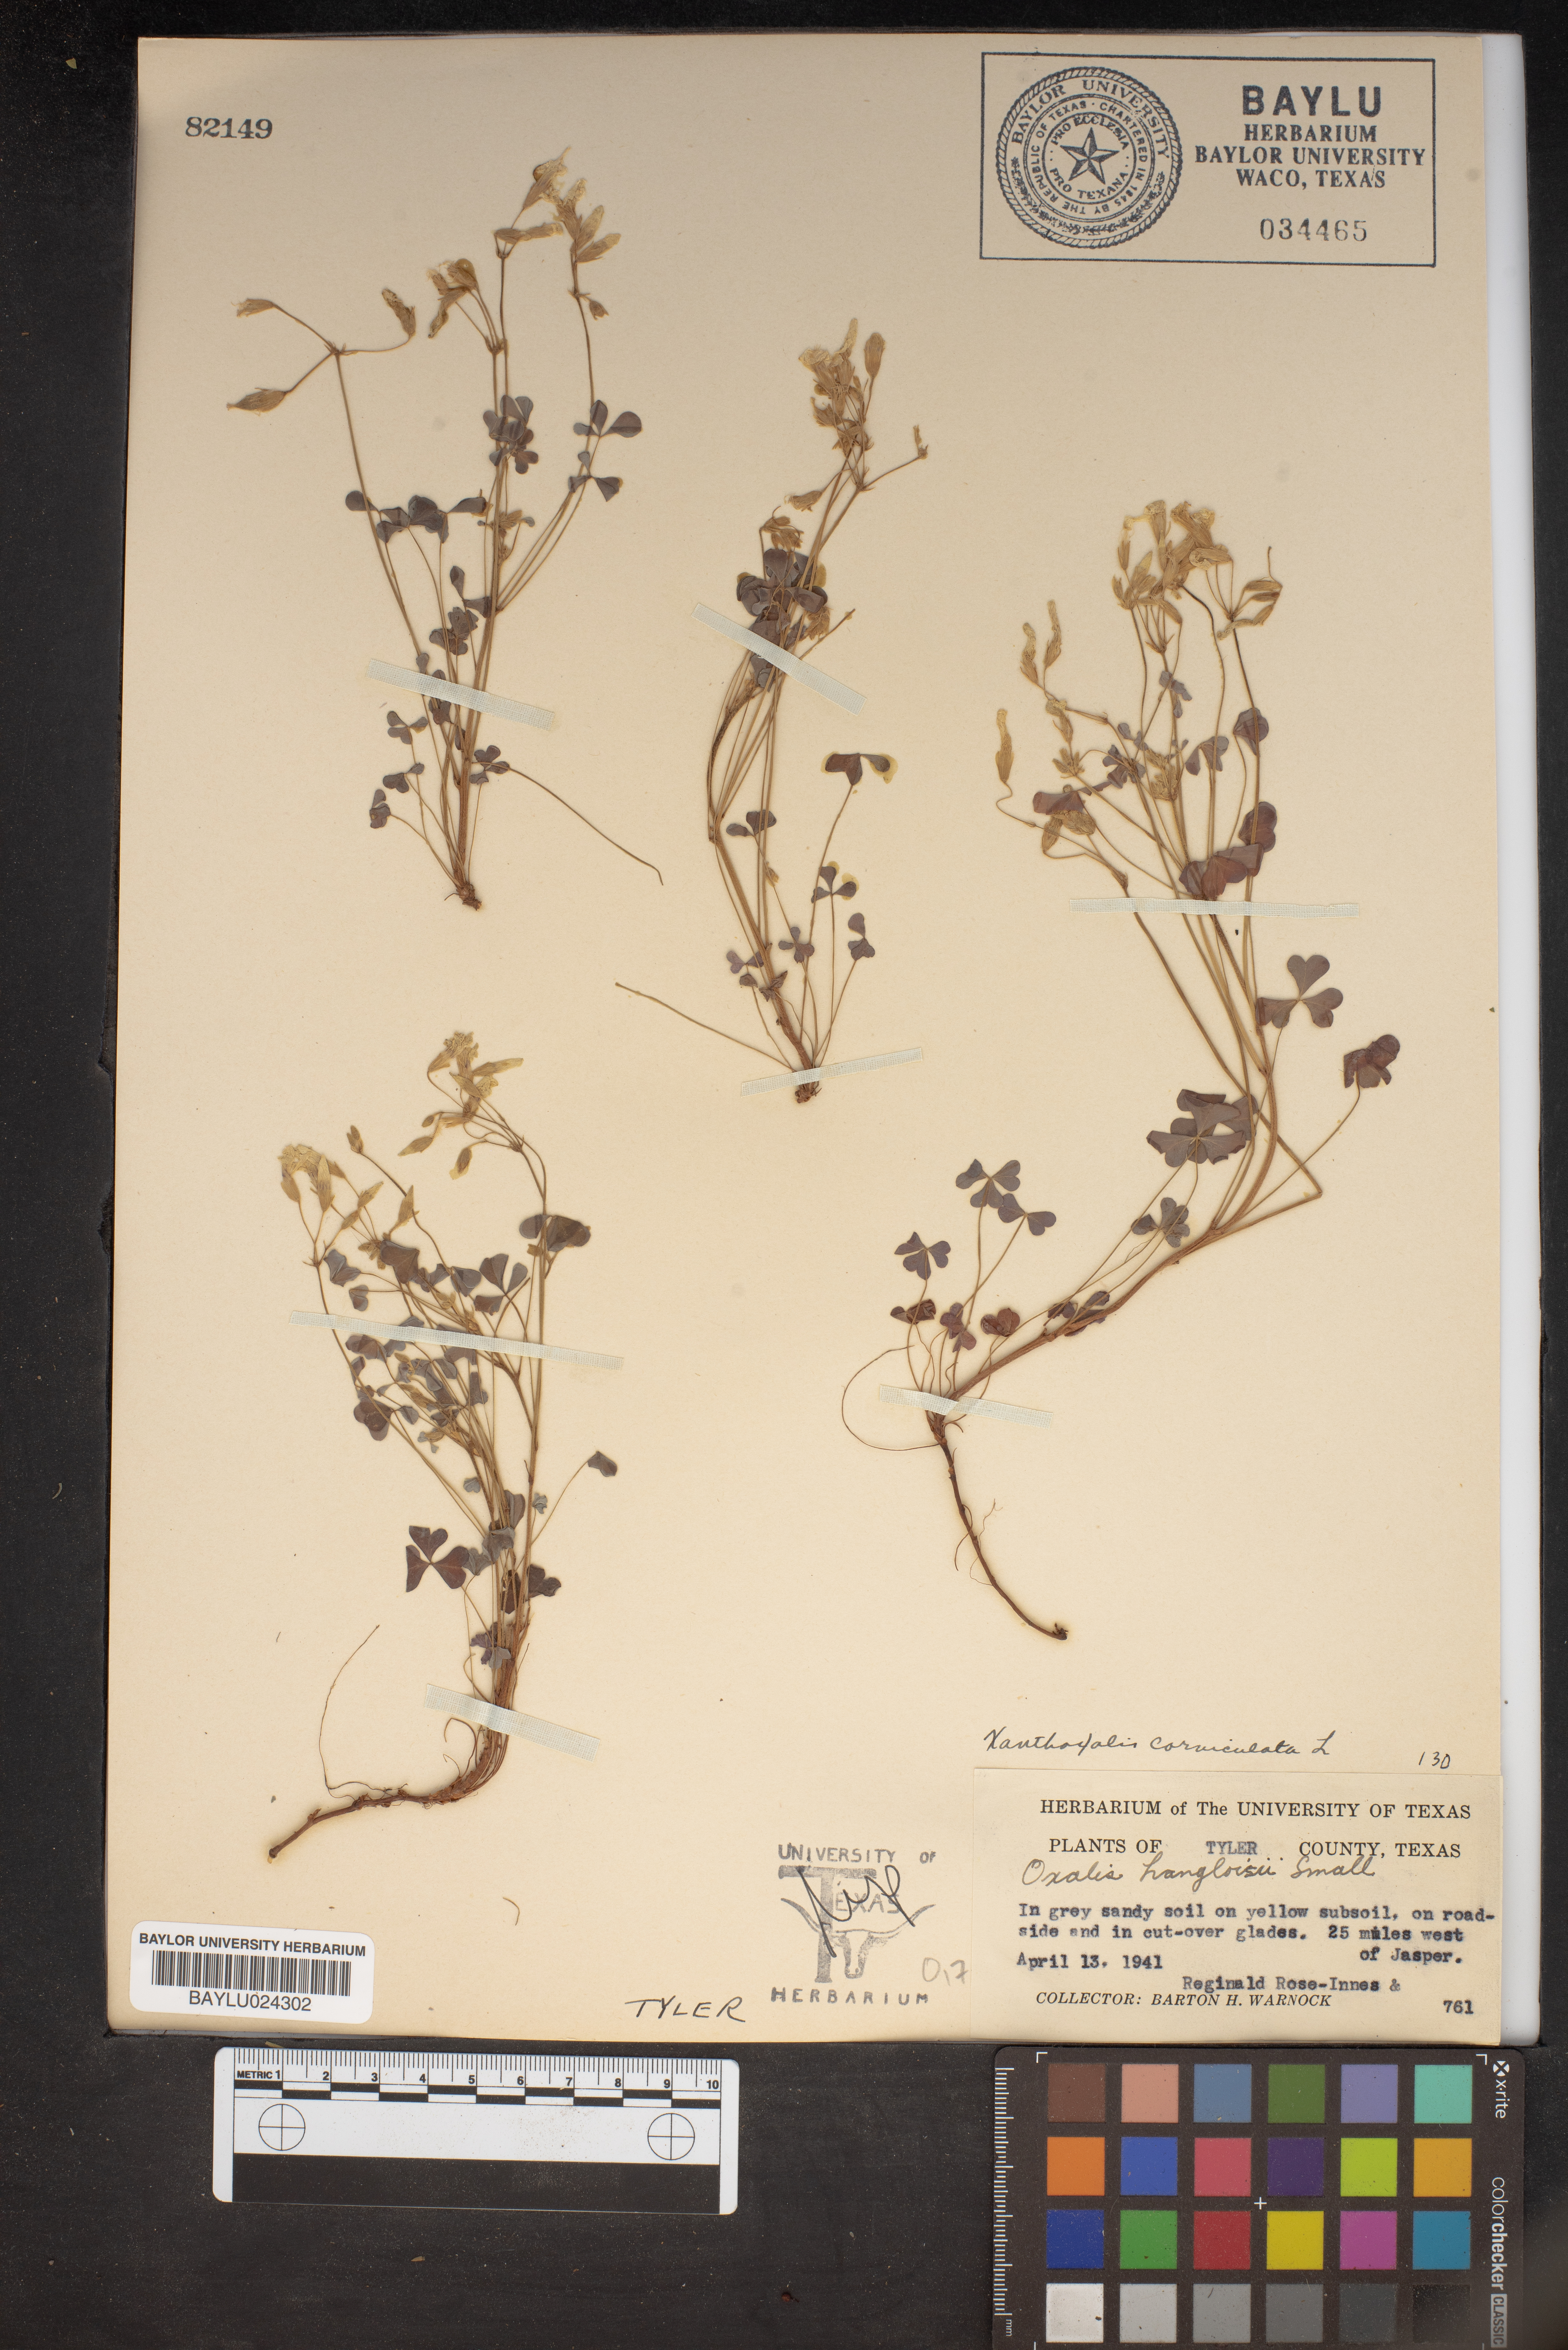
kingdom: Plantae
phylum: Tracheophyta
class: Magnoliopsida
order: Oxalidales
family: Oxalidaceae
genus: Oxalis
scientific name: Oxalis corniculata
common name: Procumbent yellow-sorrel
